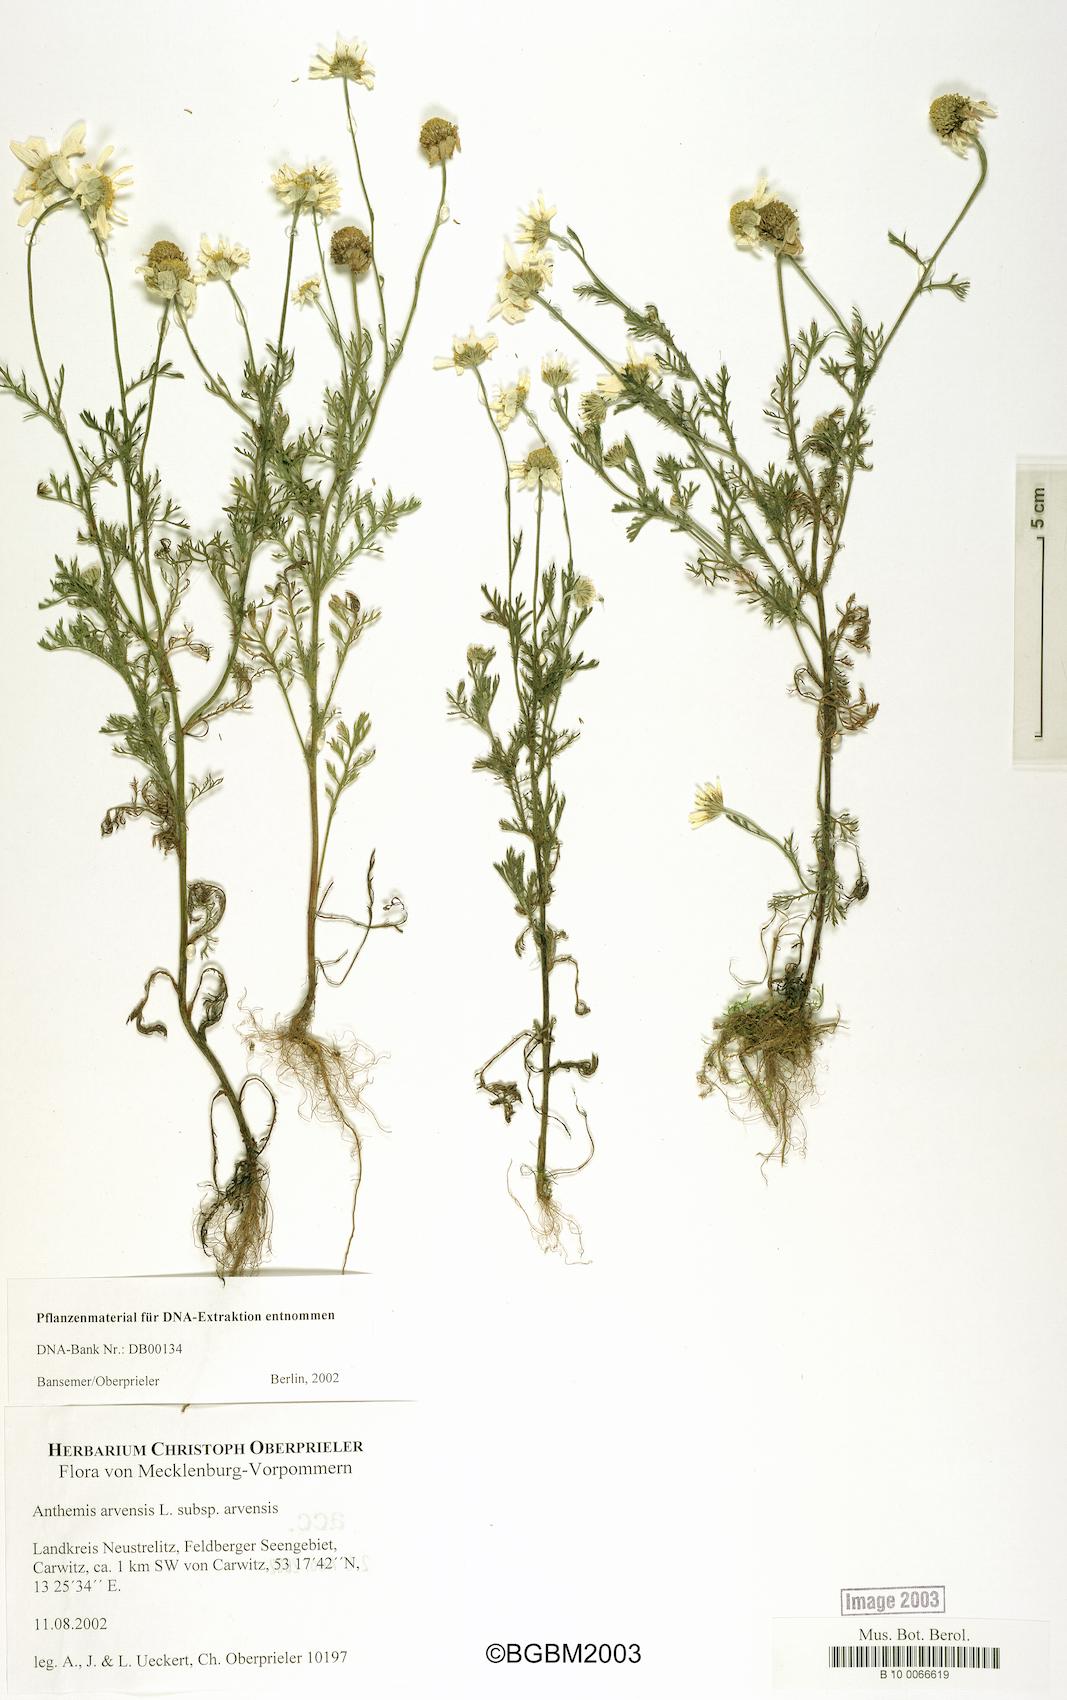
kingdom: Plantae
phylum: Tracheophyta
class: Magnoliopsida
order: Asterales
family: Asteraceae
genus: Anthemis
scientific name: Anthemis arvensis
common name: Corn chamomile
